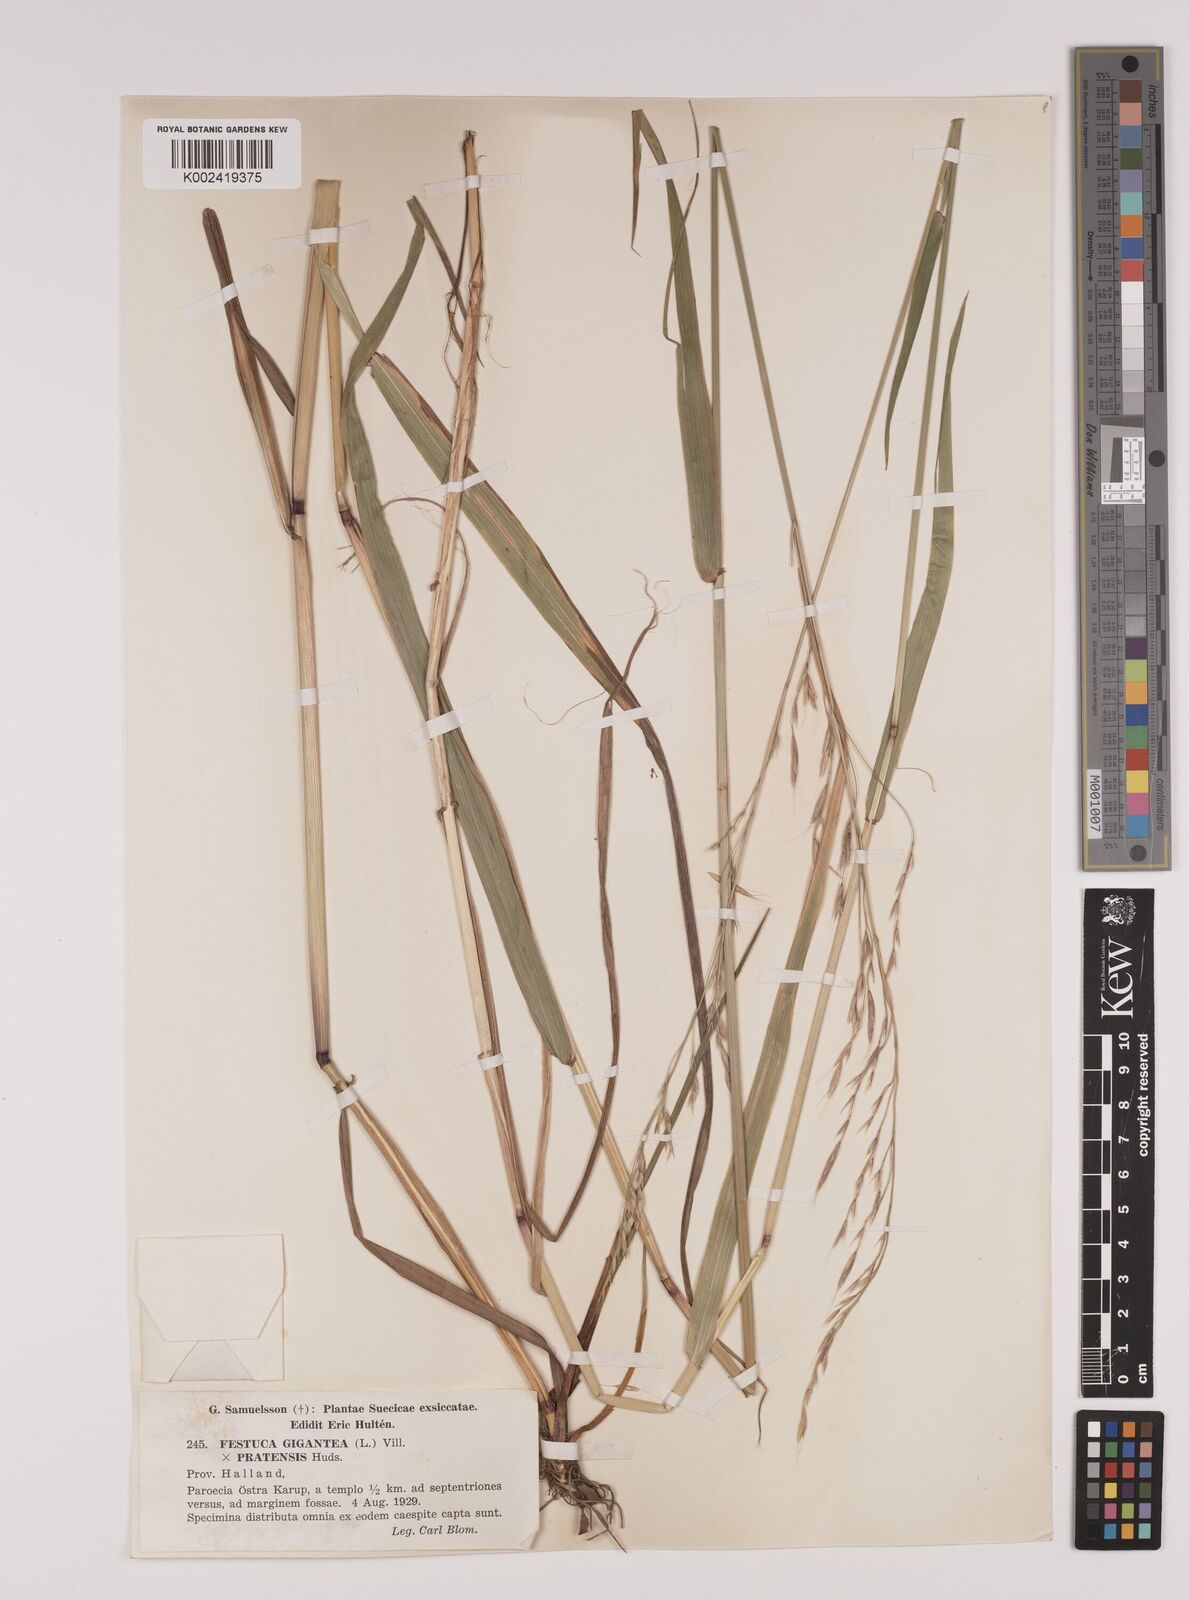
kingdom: Plantae
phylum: Tracheophyta
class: Liliopsida
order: Poales
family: Poaceae
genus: Lolium
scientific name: Lolium giganteum
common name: Giant fescue
